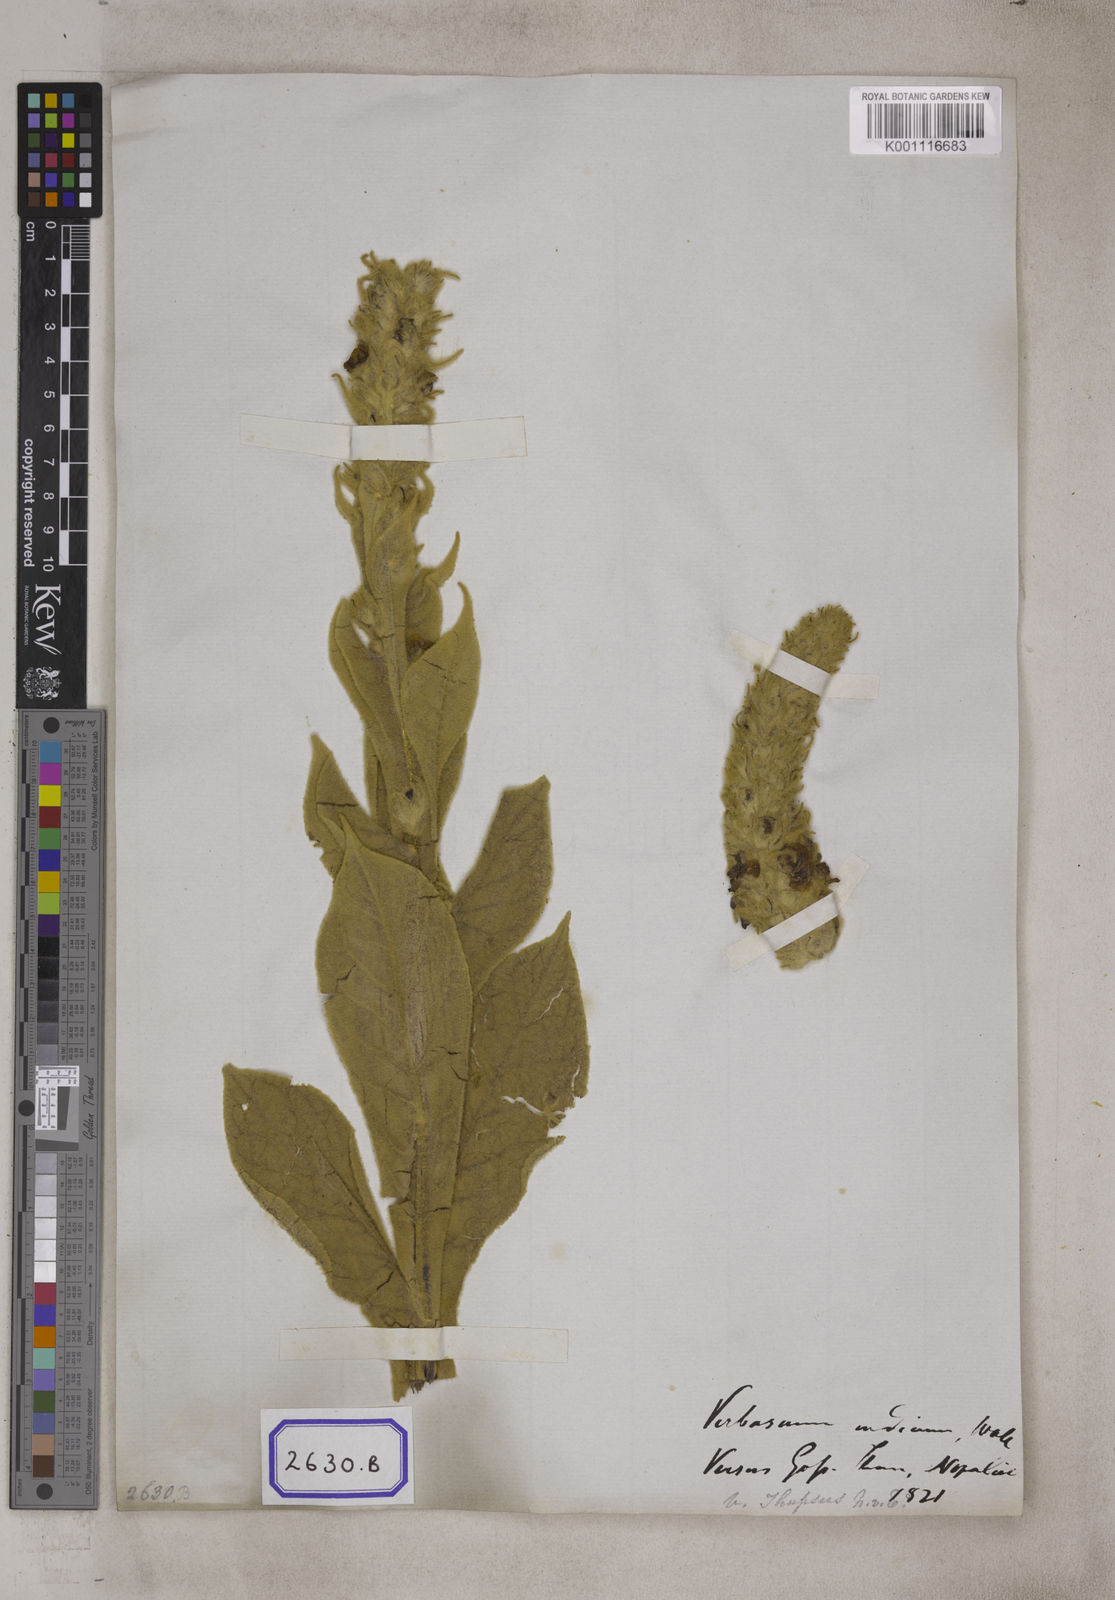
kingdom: Plantae
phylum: Tracheophyta
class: Magnoliopsida
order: Lamiales
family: Scrophulariaceae
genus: Verbascum
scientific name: Verbascum thapsus
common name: Common mullein
